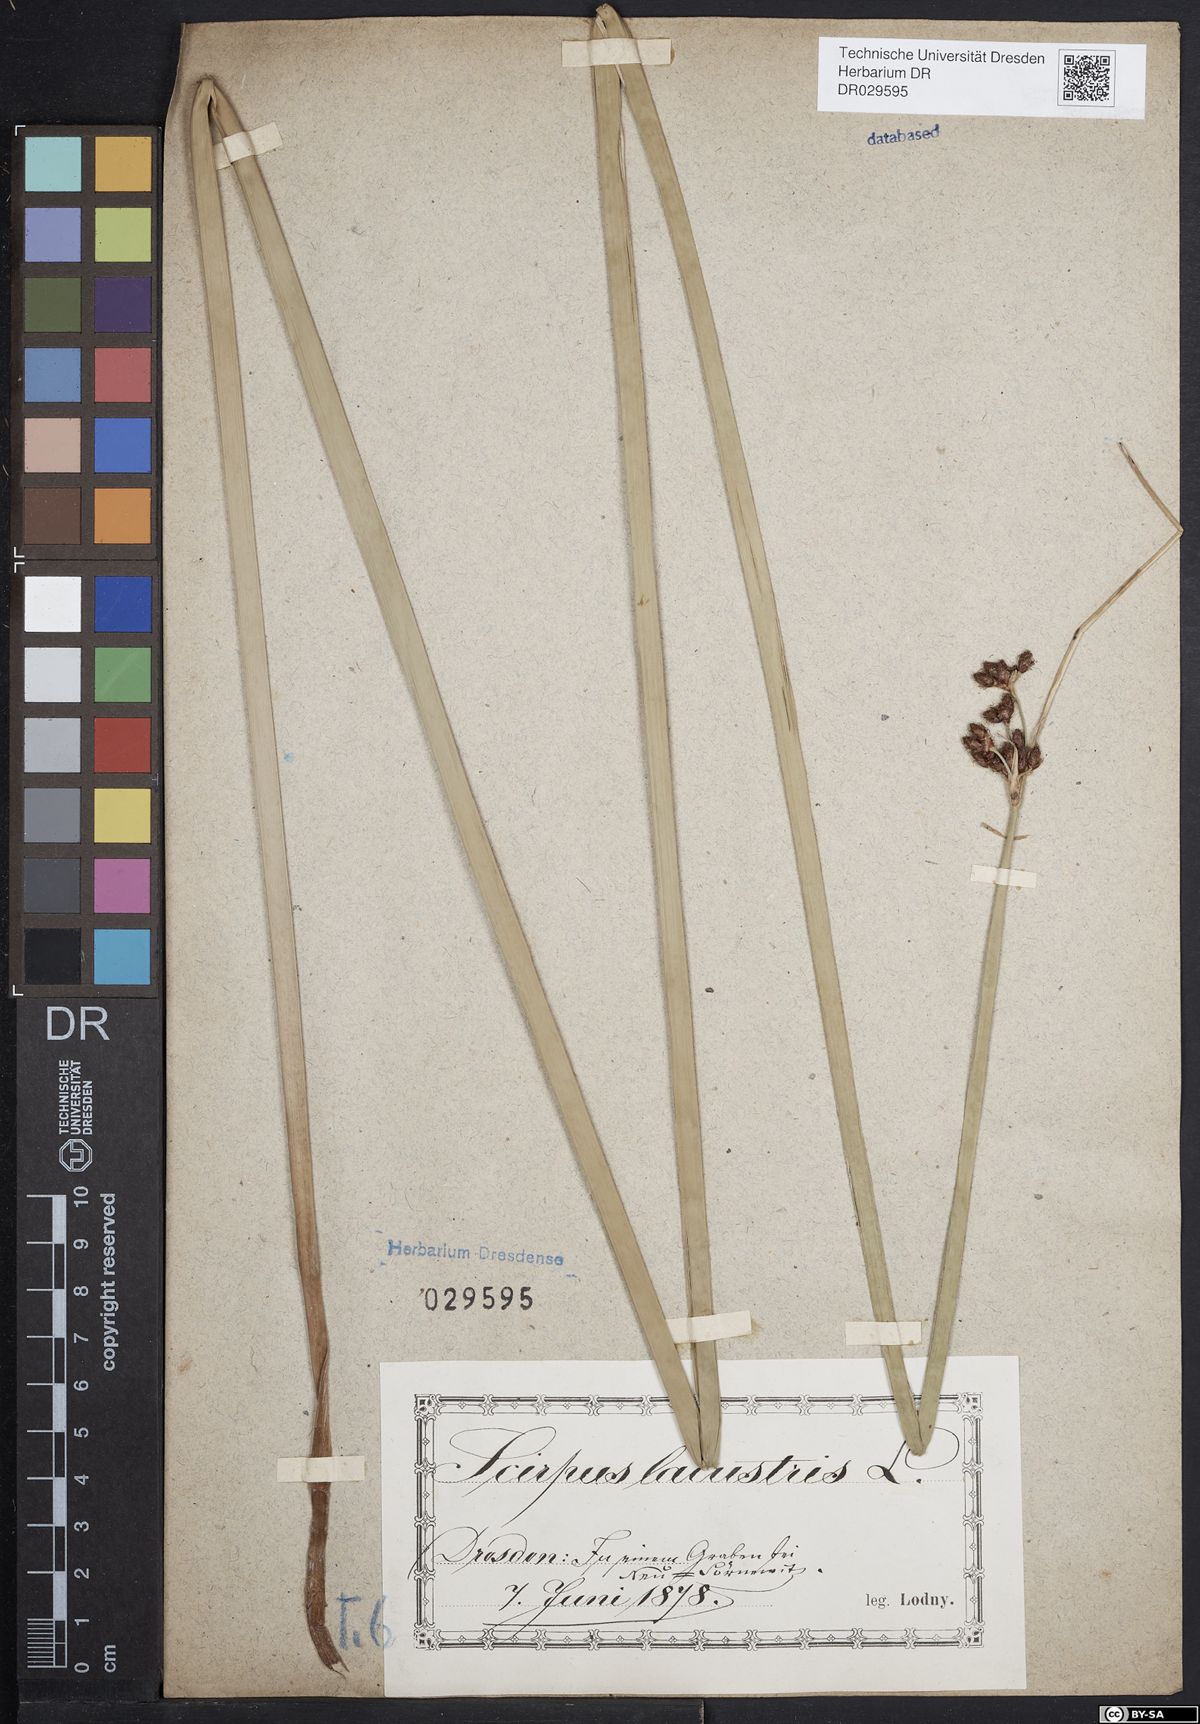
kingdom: Plantae
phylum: Tracheophyta
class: Liliopsida
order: Poales
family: Cyperaceae
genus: Schoenoplectus
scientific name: Schoenoplectus lacustris
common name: Common club-rush
